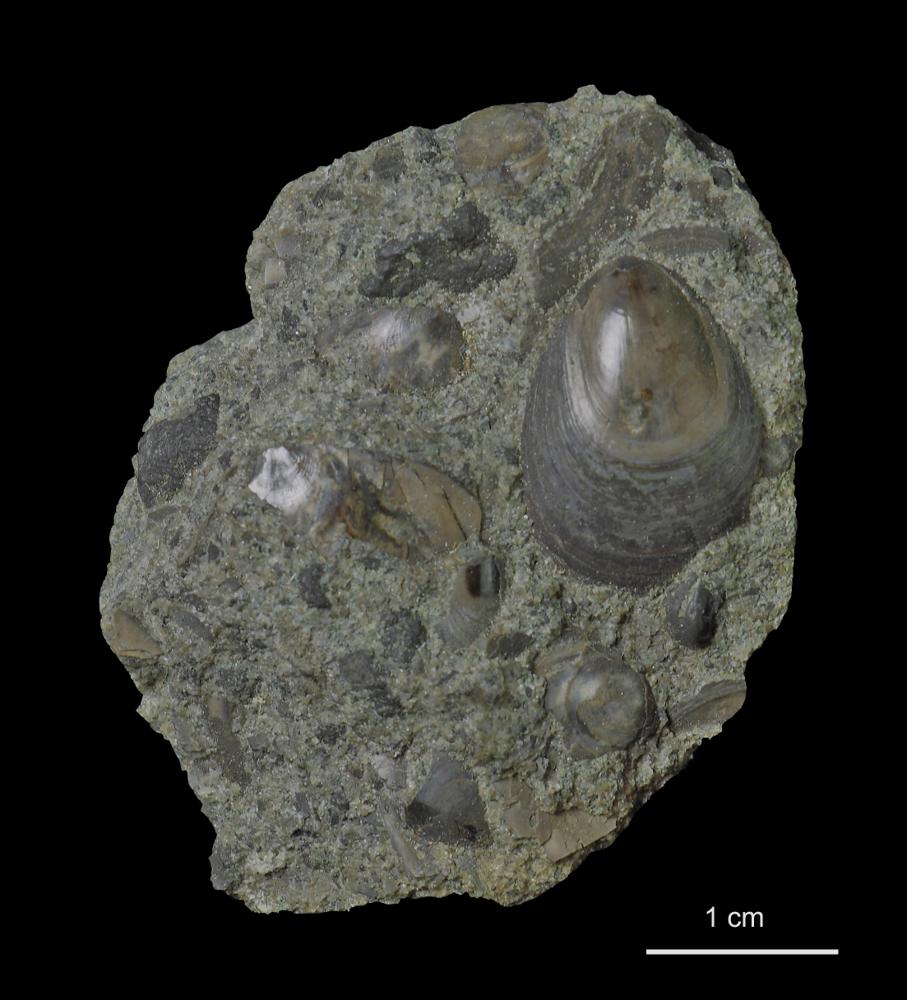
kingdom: Animalia
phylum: Brachiopoda
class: Lingulata
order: Lingulida
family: Obolidae
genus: Obolus
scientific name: Obolus
